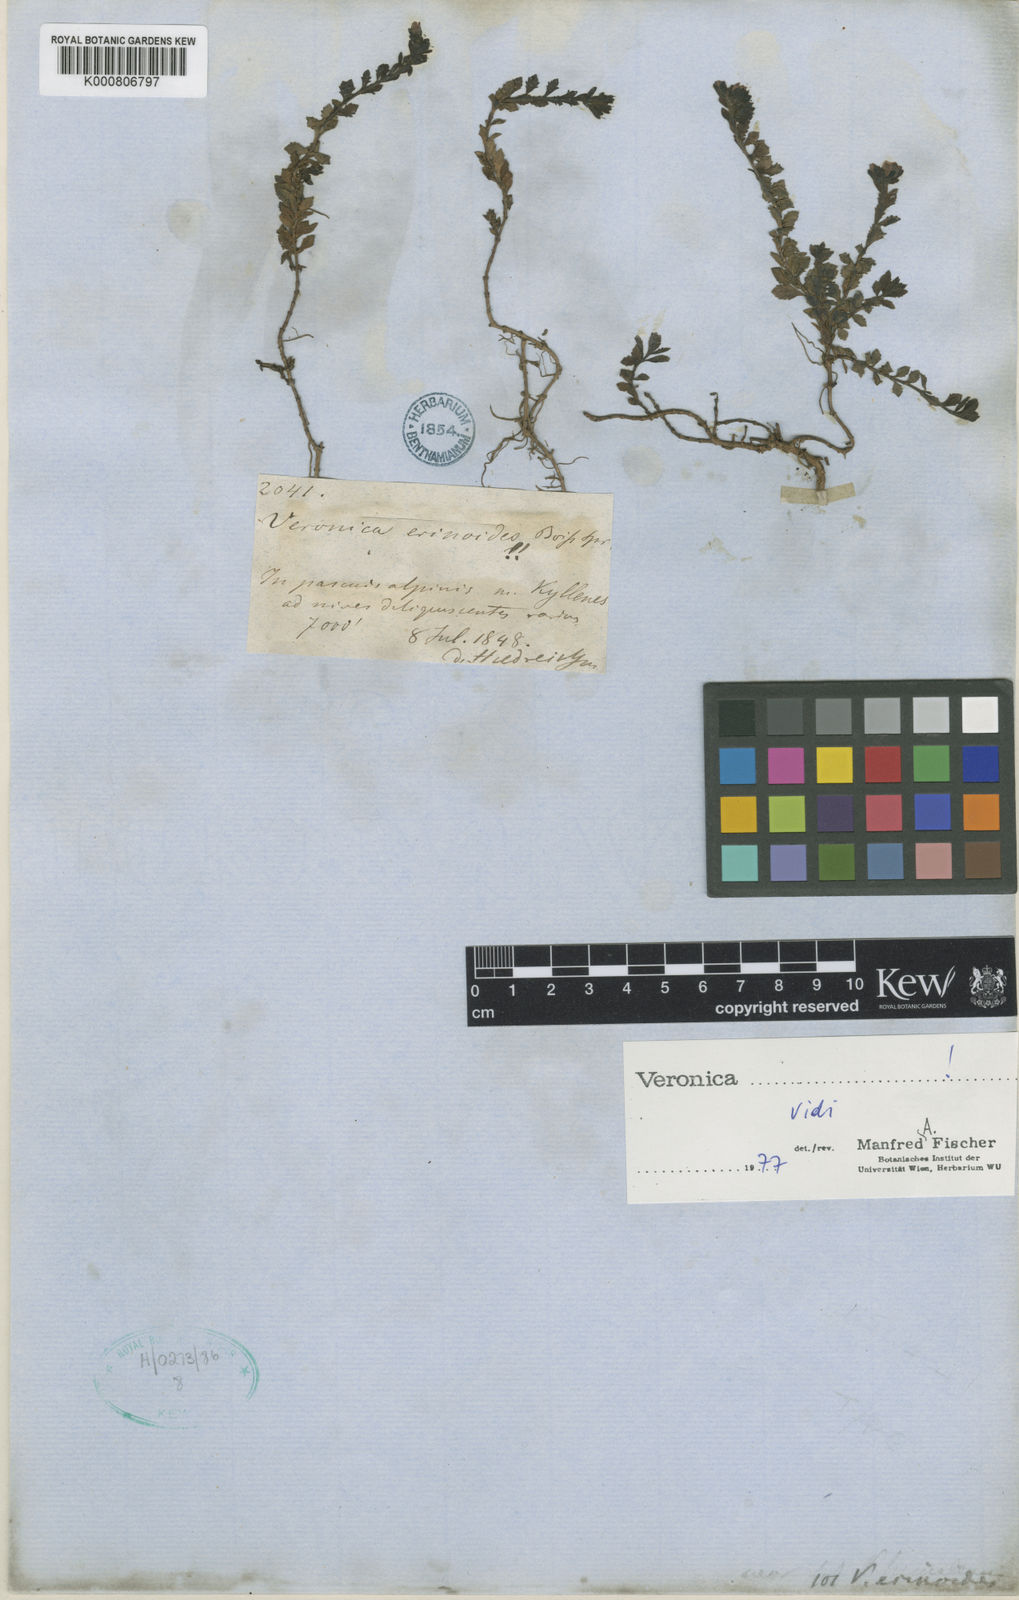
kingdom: Plantae
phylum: Tracheophyta
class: Magnoliopsida
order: Lamiales
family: Plantaginaceae
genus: Veronica
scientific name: Veronica erinoides
